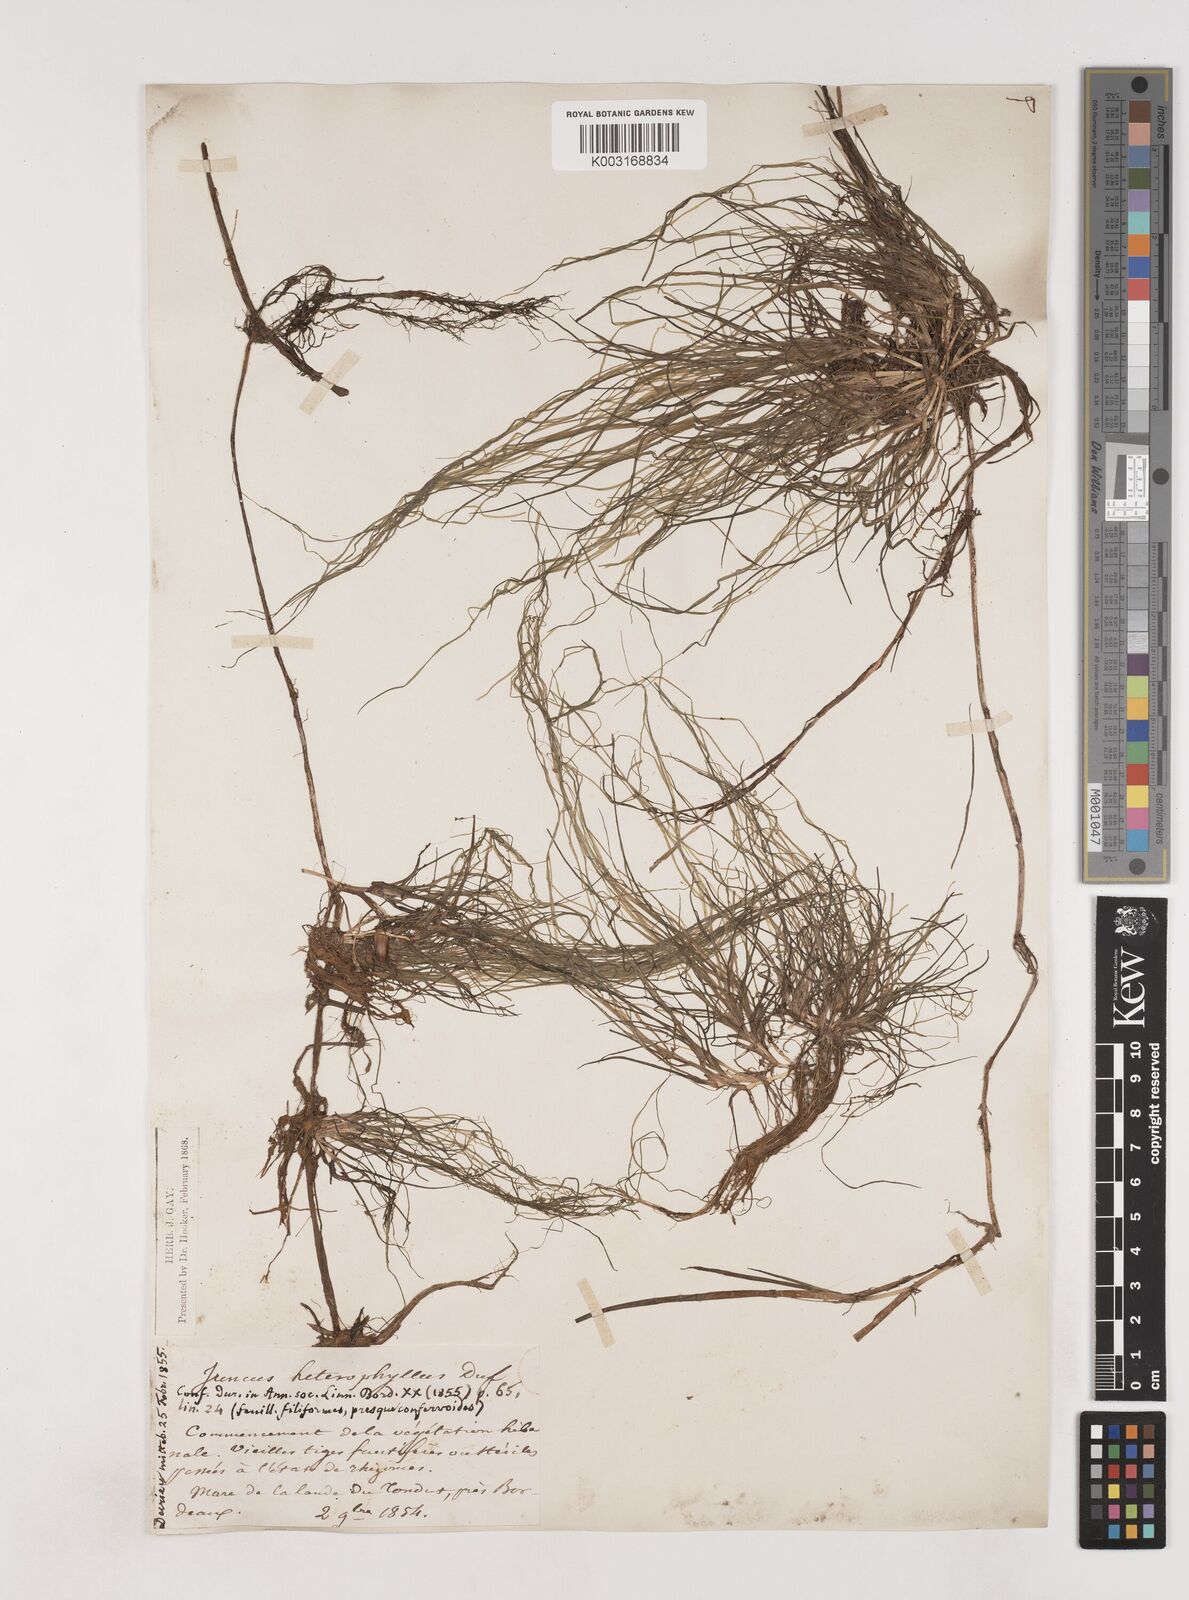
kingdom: Plantae
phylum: Tracheophyta
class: Liliopsida
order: Poales
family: Juncaceae
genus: Juncus
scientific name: Juncus heterophyllus
